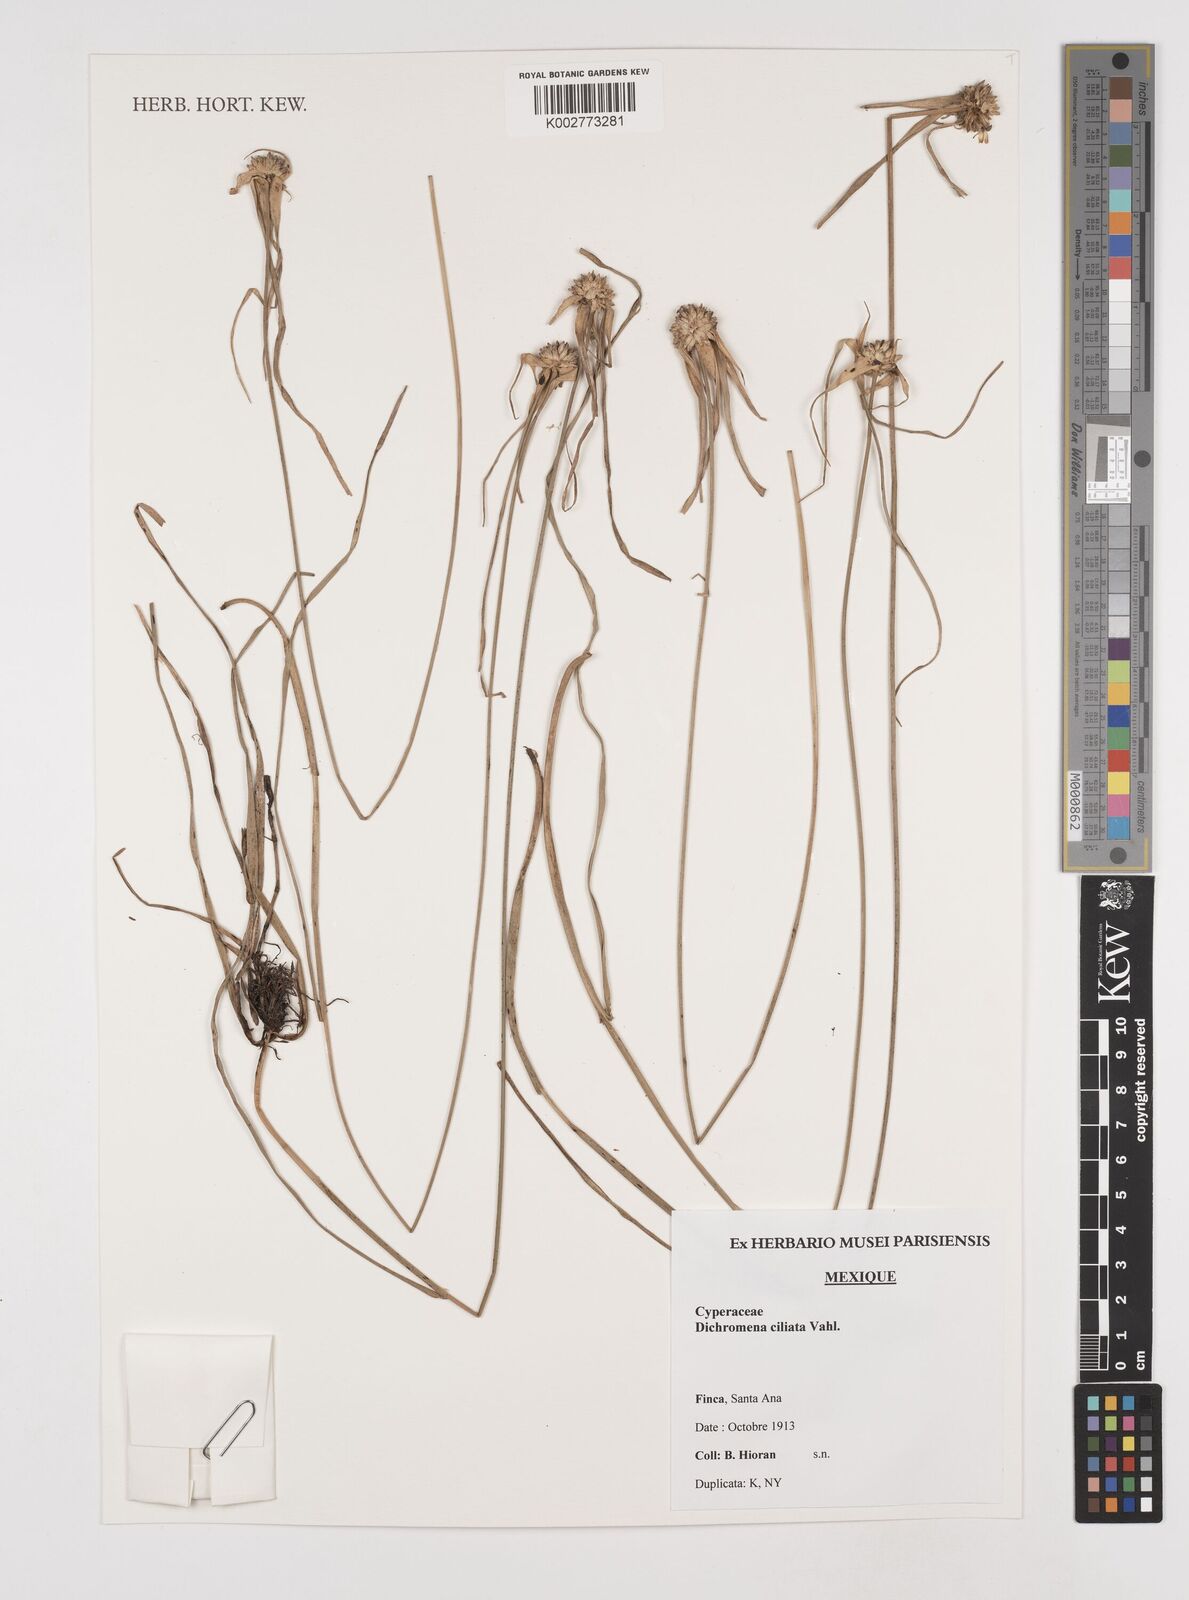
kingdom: Plantae
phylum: Tracheophyta
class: Liliopsida
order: Poales
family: Cyperaceae
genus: Rhynchospora
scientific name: Rhynchospora pura
